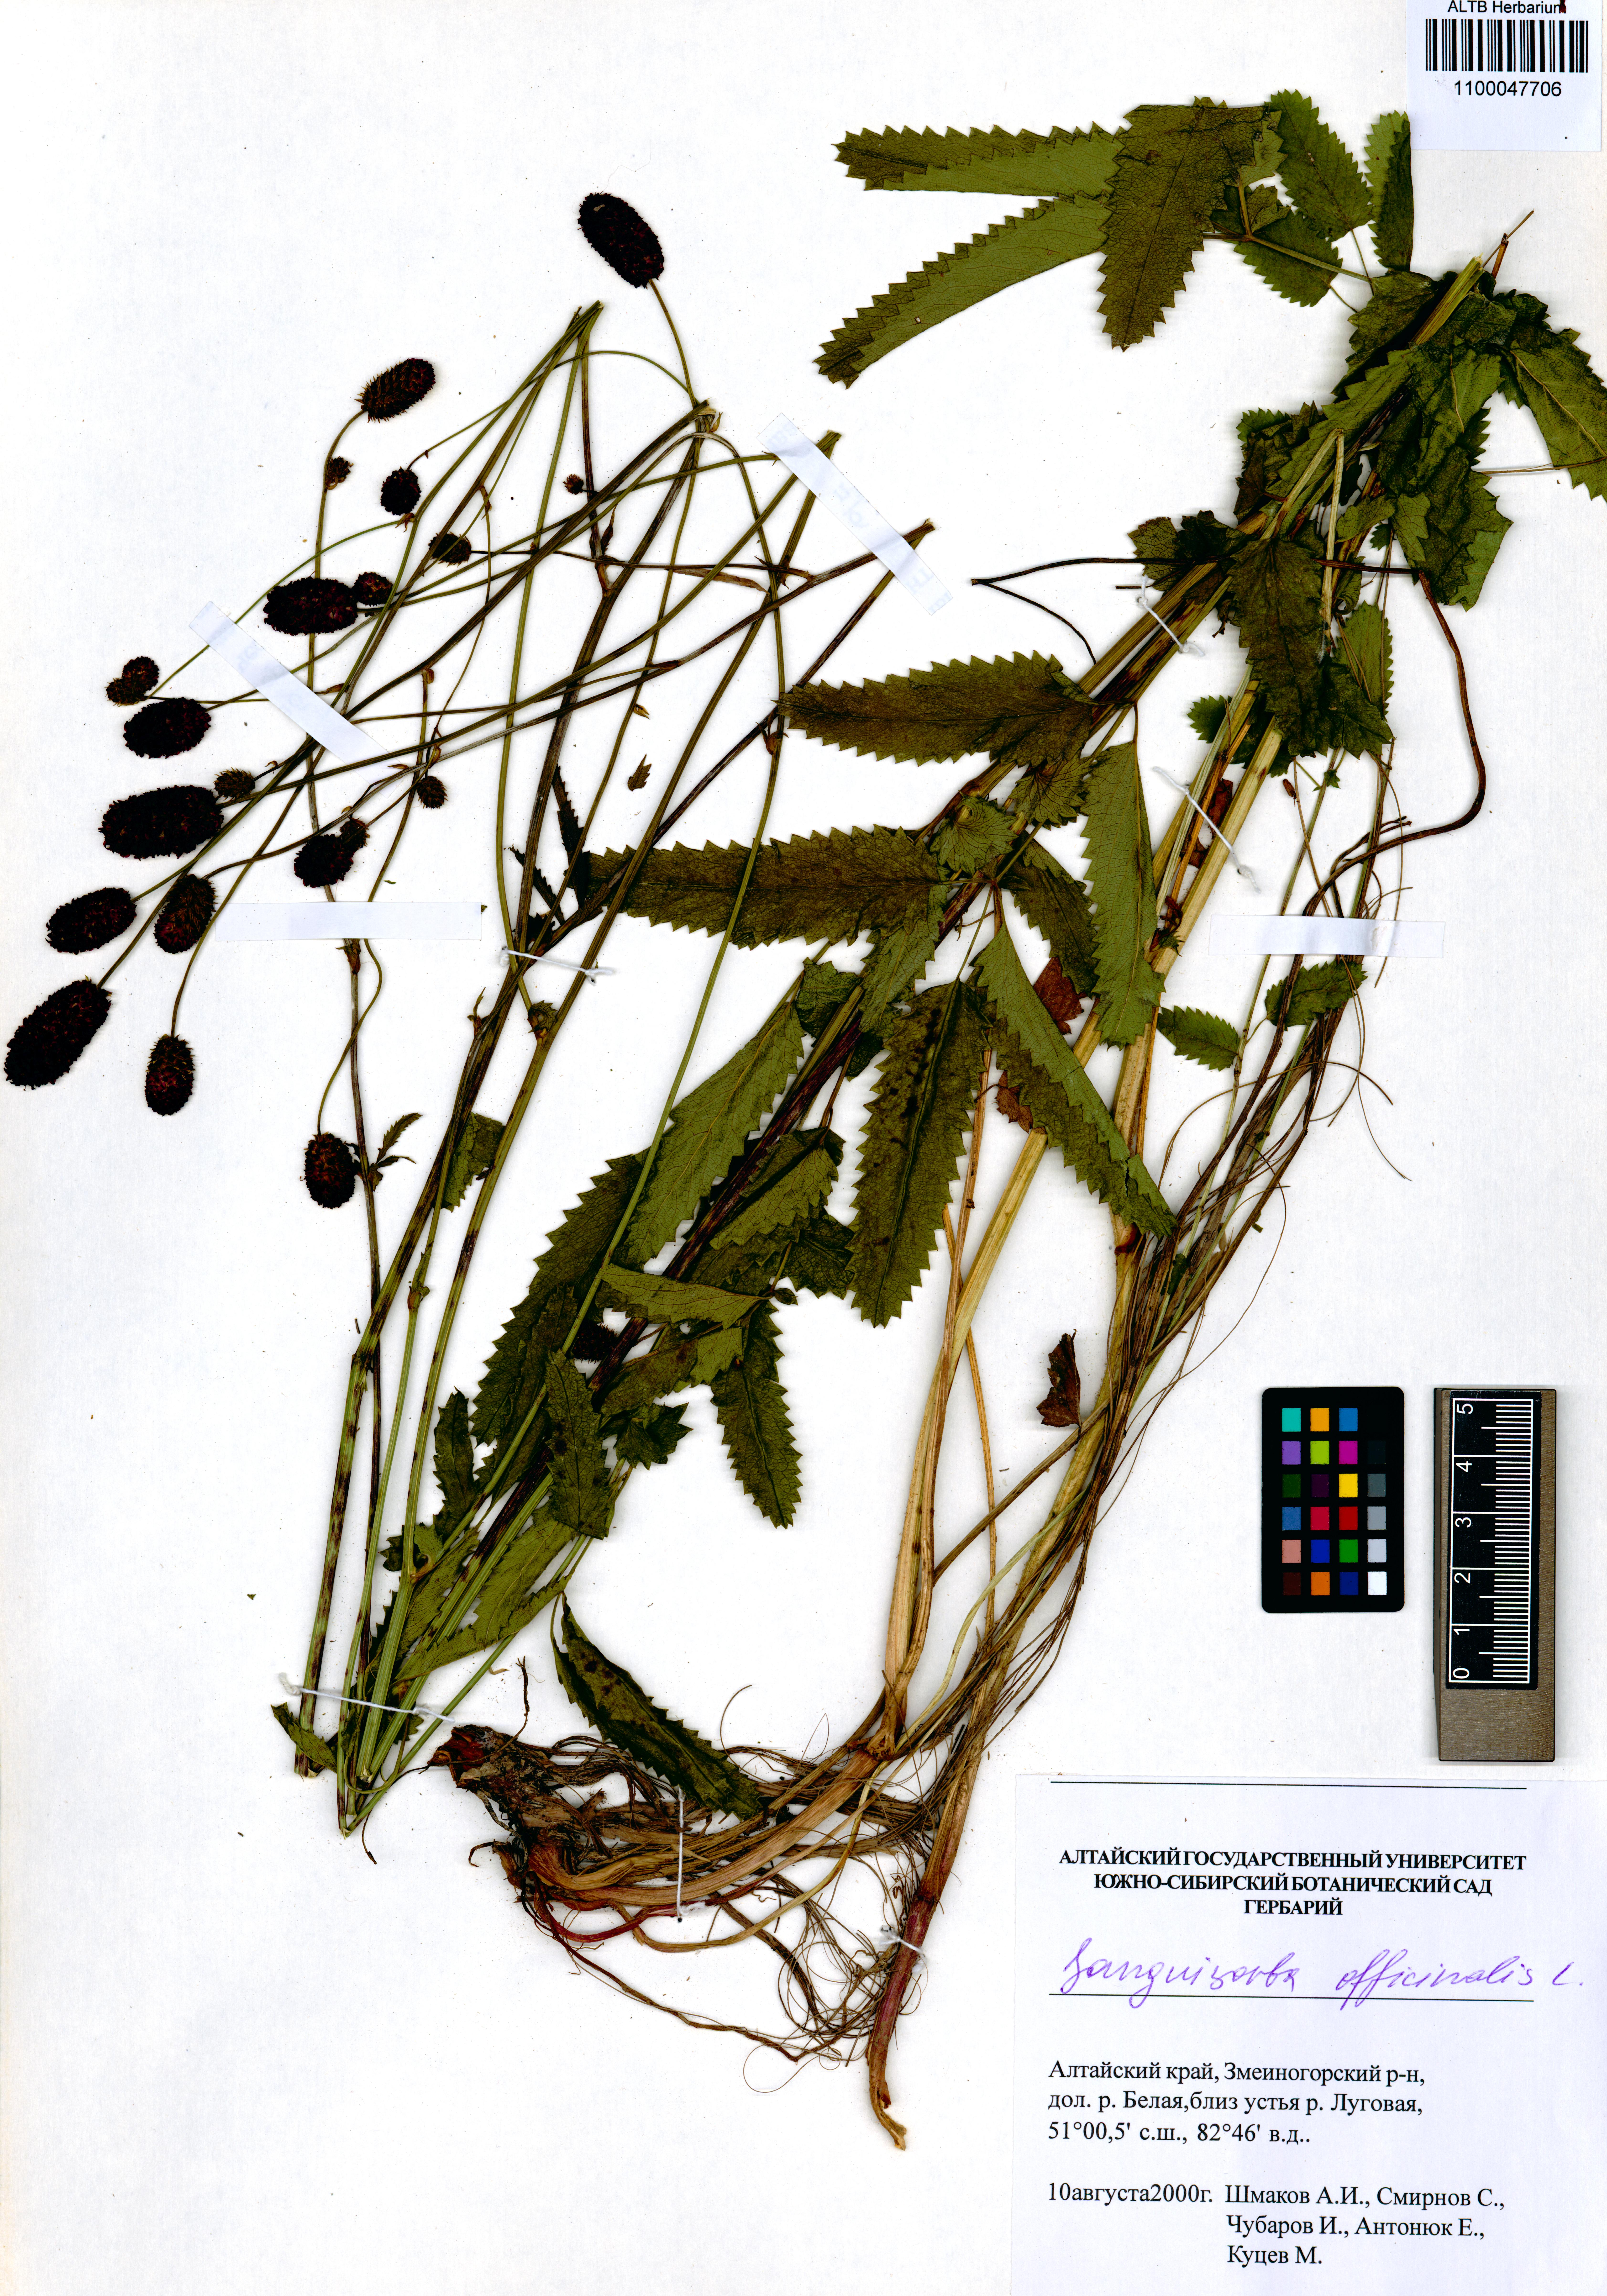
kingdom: Plantae
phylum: Tracheophyta
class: Magnoliopsida
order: Rosales
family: Rosaceae
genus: Sanguisorba
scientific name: Sanguisorba officinalis
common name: Great burnet
